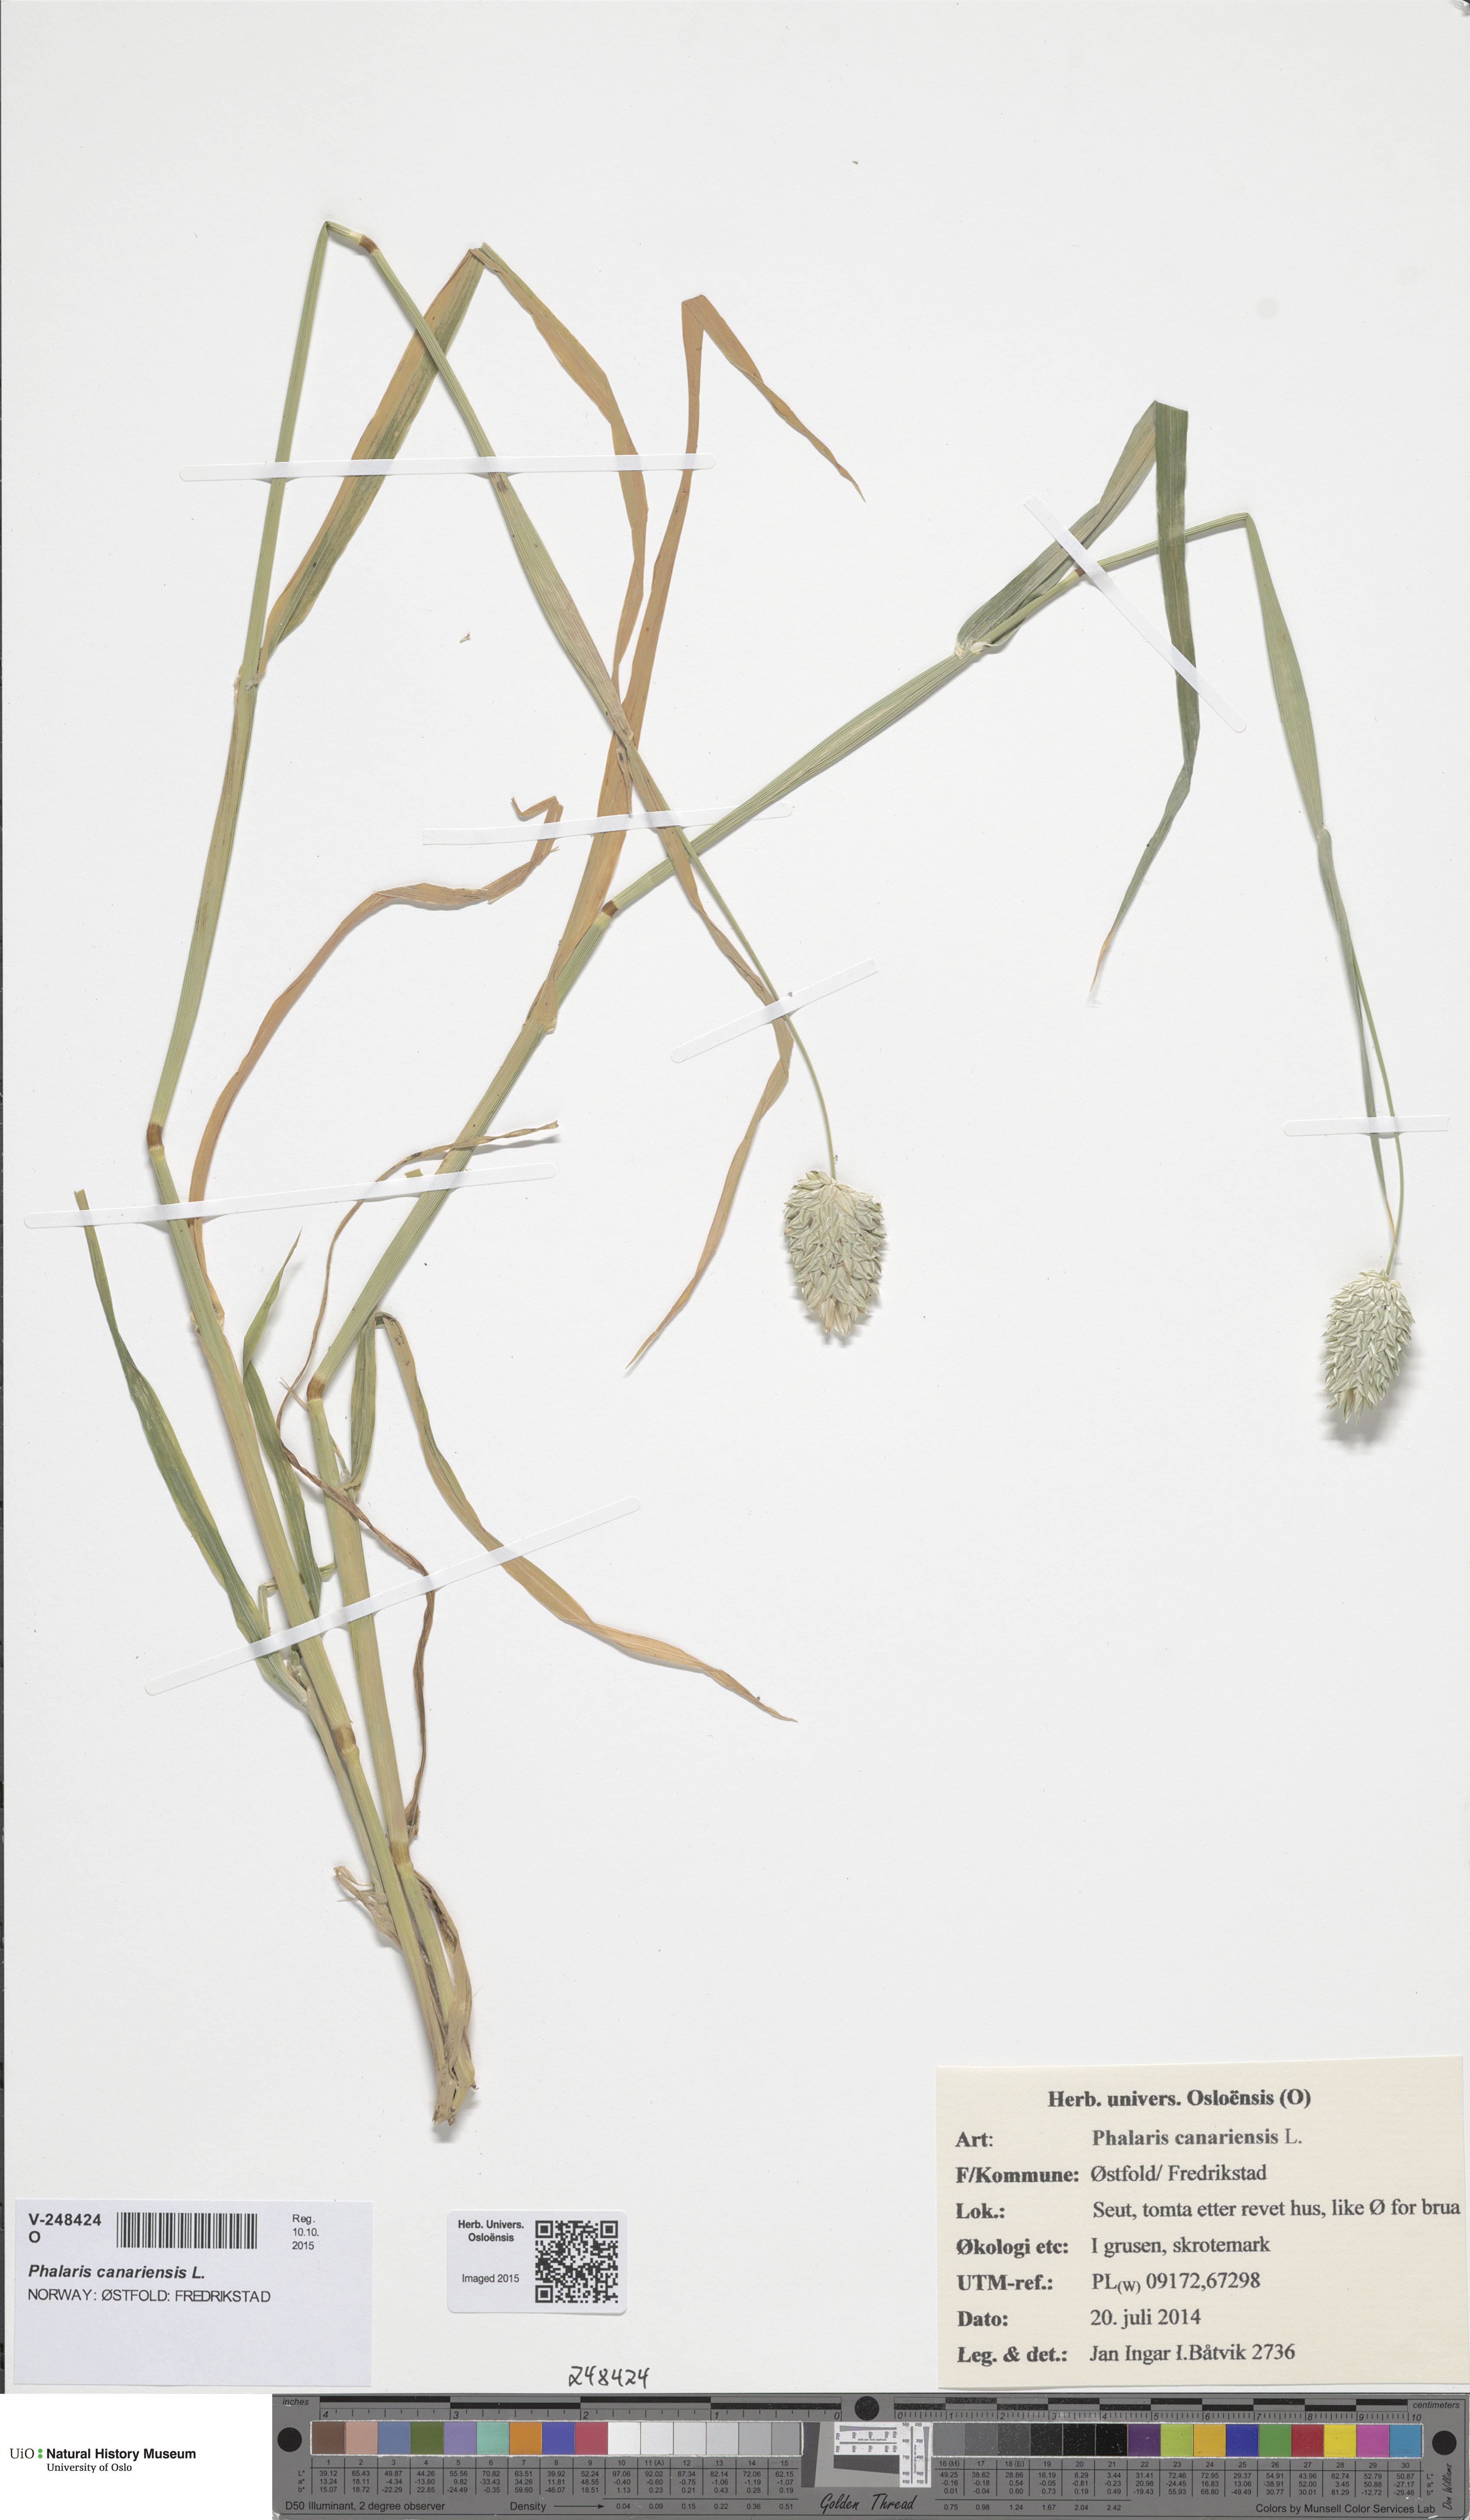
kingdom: Plantae
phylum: Tracheophyta
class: Liliopsida
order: Poales
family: Poaceae
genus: Phalaris
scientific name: Phalaris canariensis
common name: Annual canarygrass
